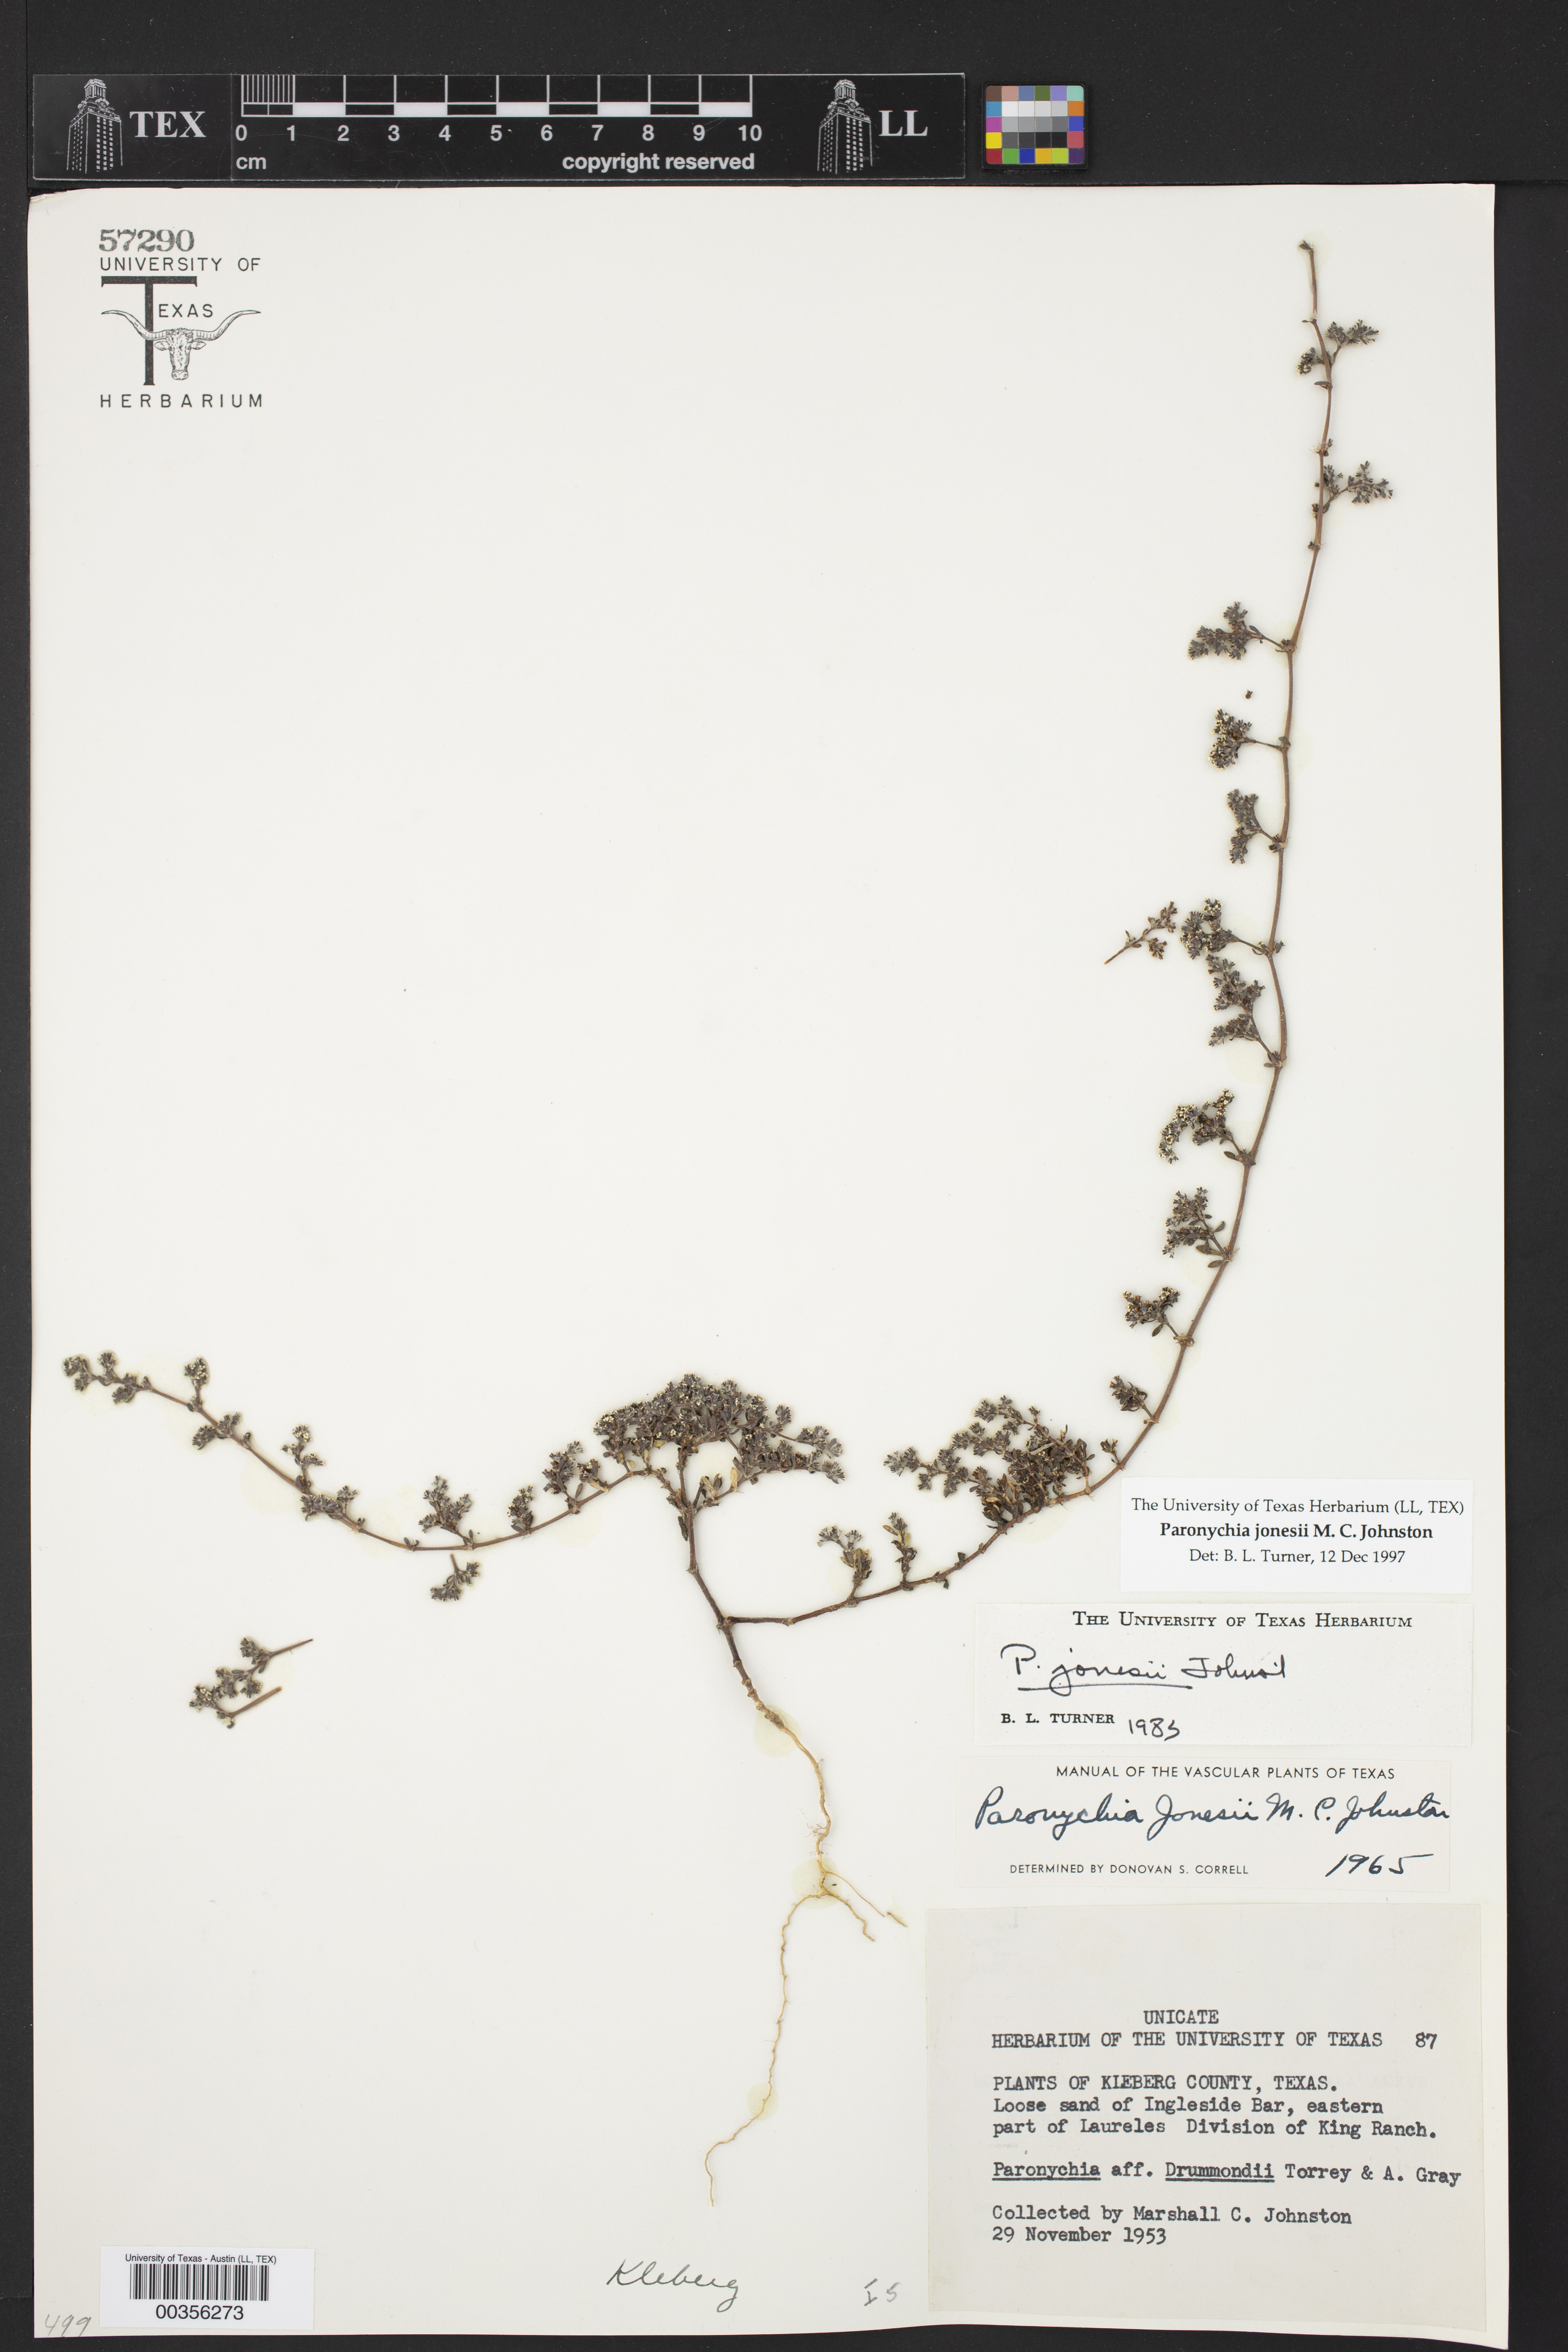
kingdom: Plantae
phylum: Tracheophyta
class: Magnoliopsida
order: Caryophyllales
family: Caryophyllaceae
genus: Paronychia
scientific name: Paronychia jonesii
